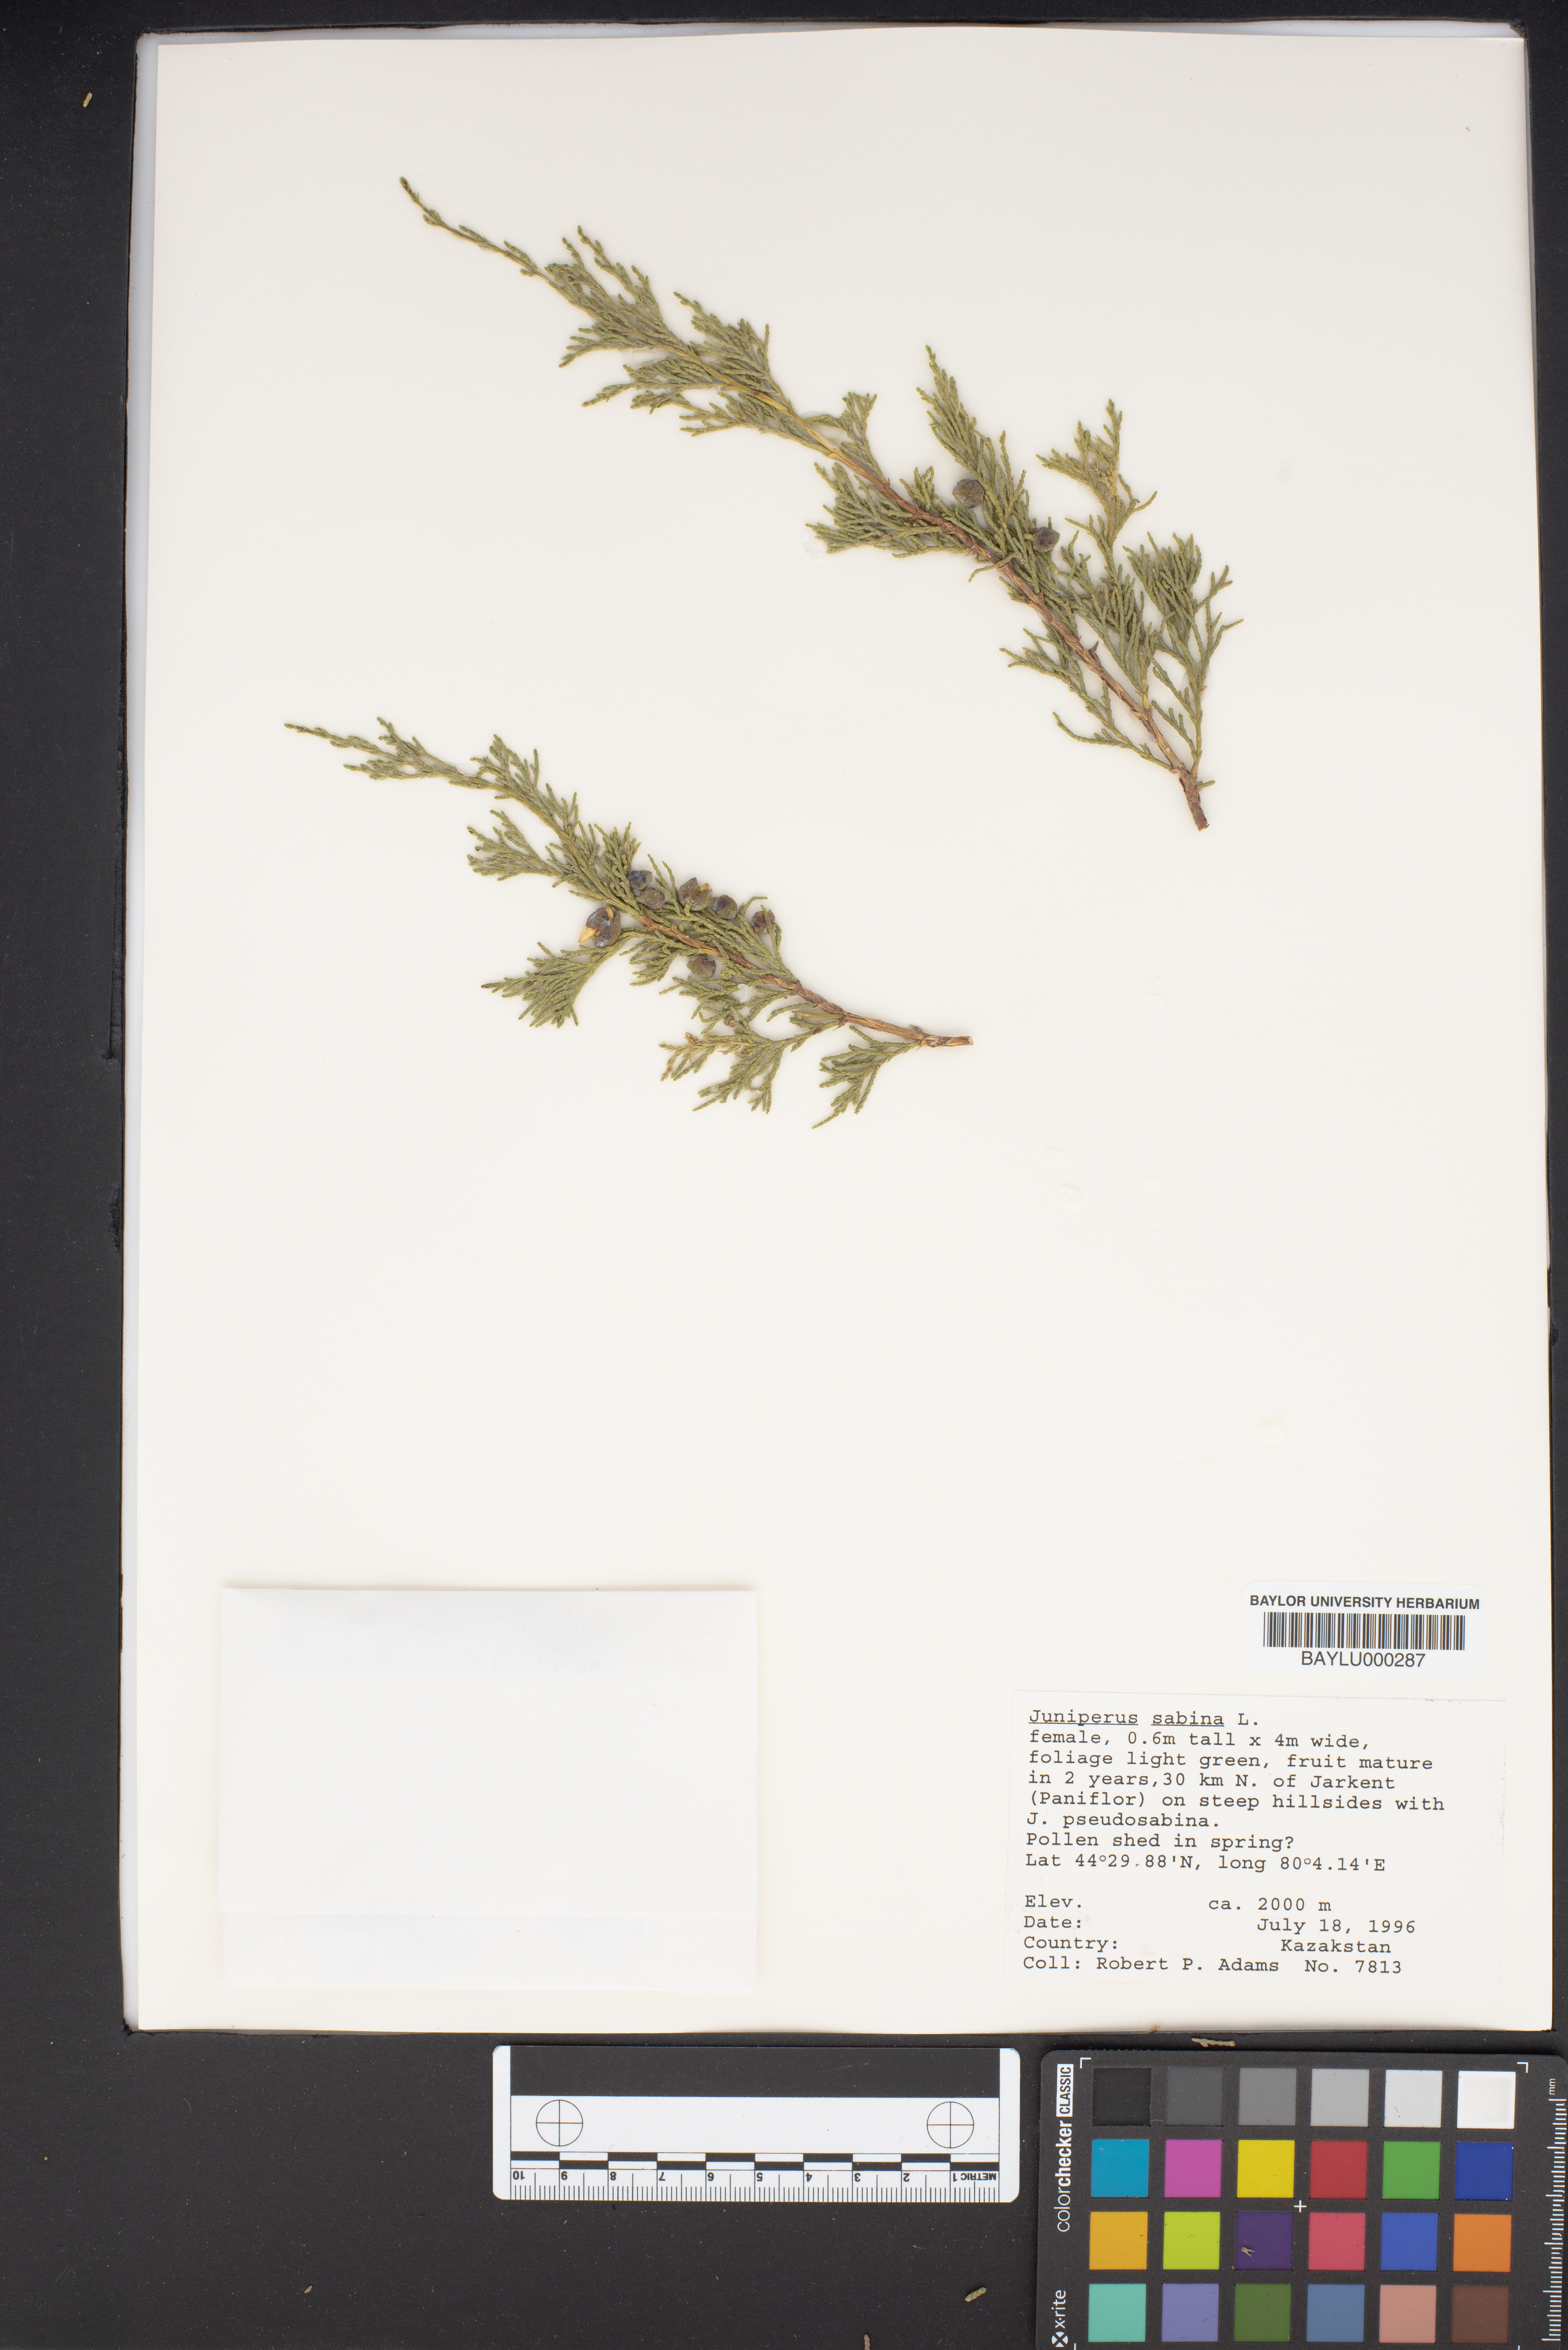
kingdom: Plantae
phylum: Tracheophyta
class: Pinopsida
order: Pinales
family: Cupressaceae
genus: Juniperus
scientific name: Juniperus sabina
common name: Savin
